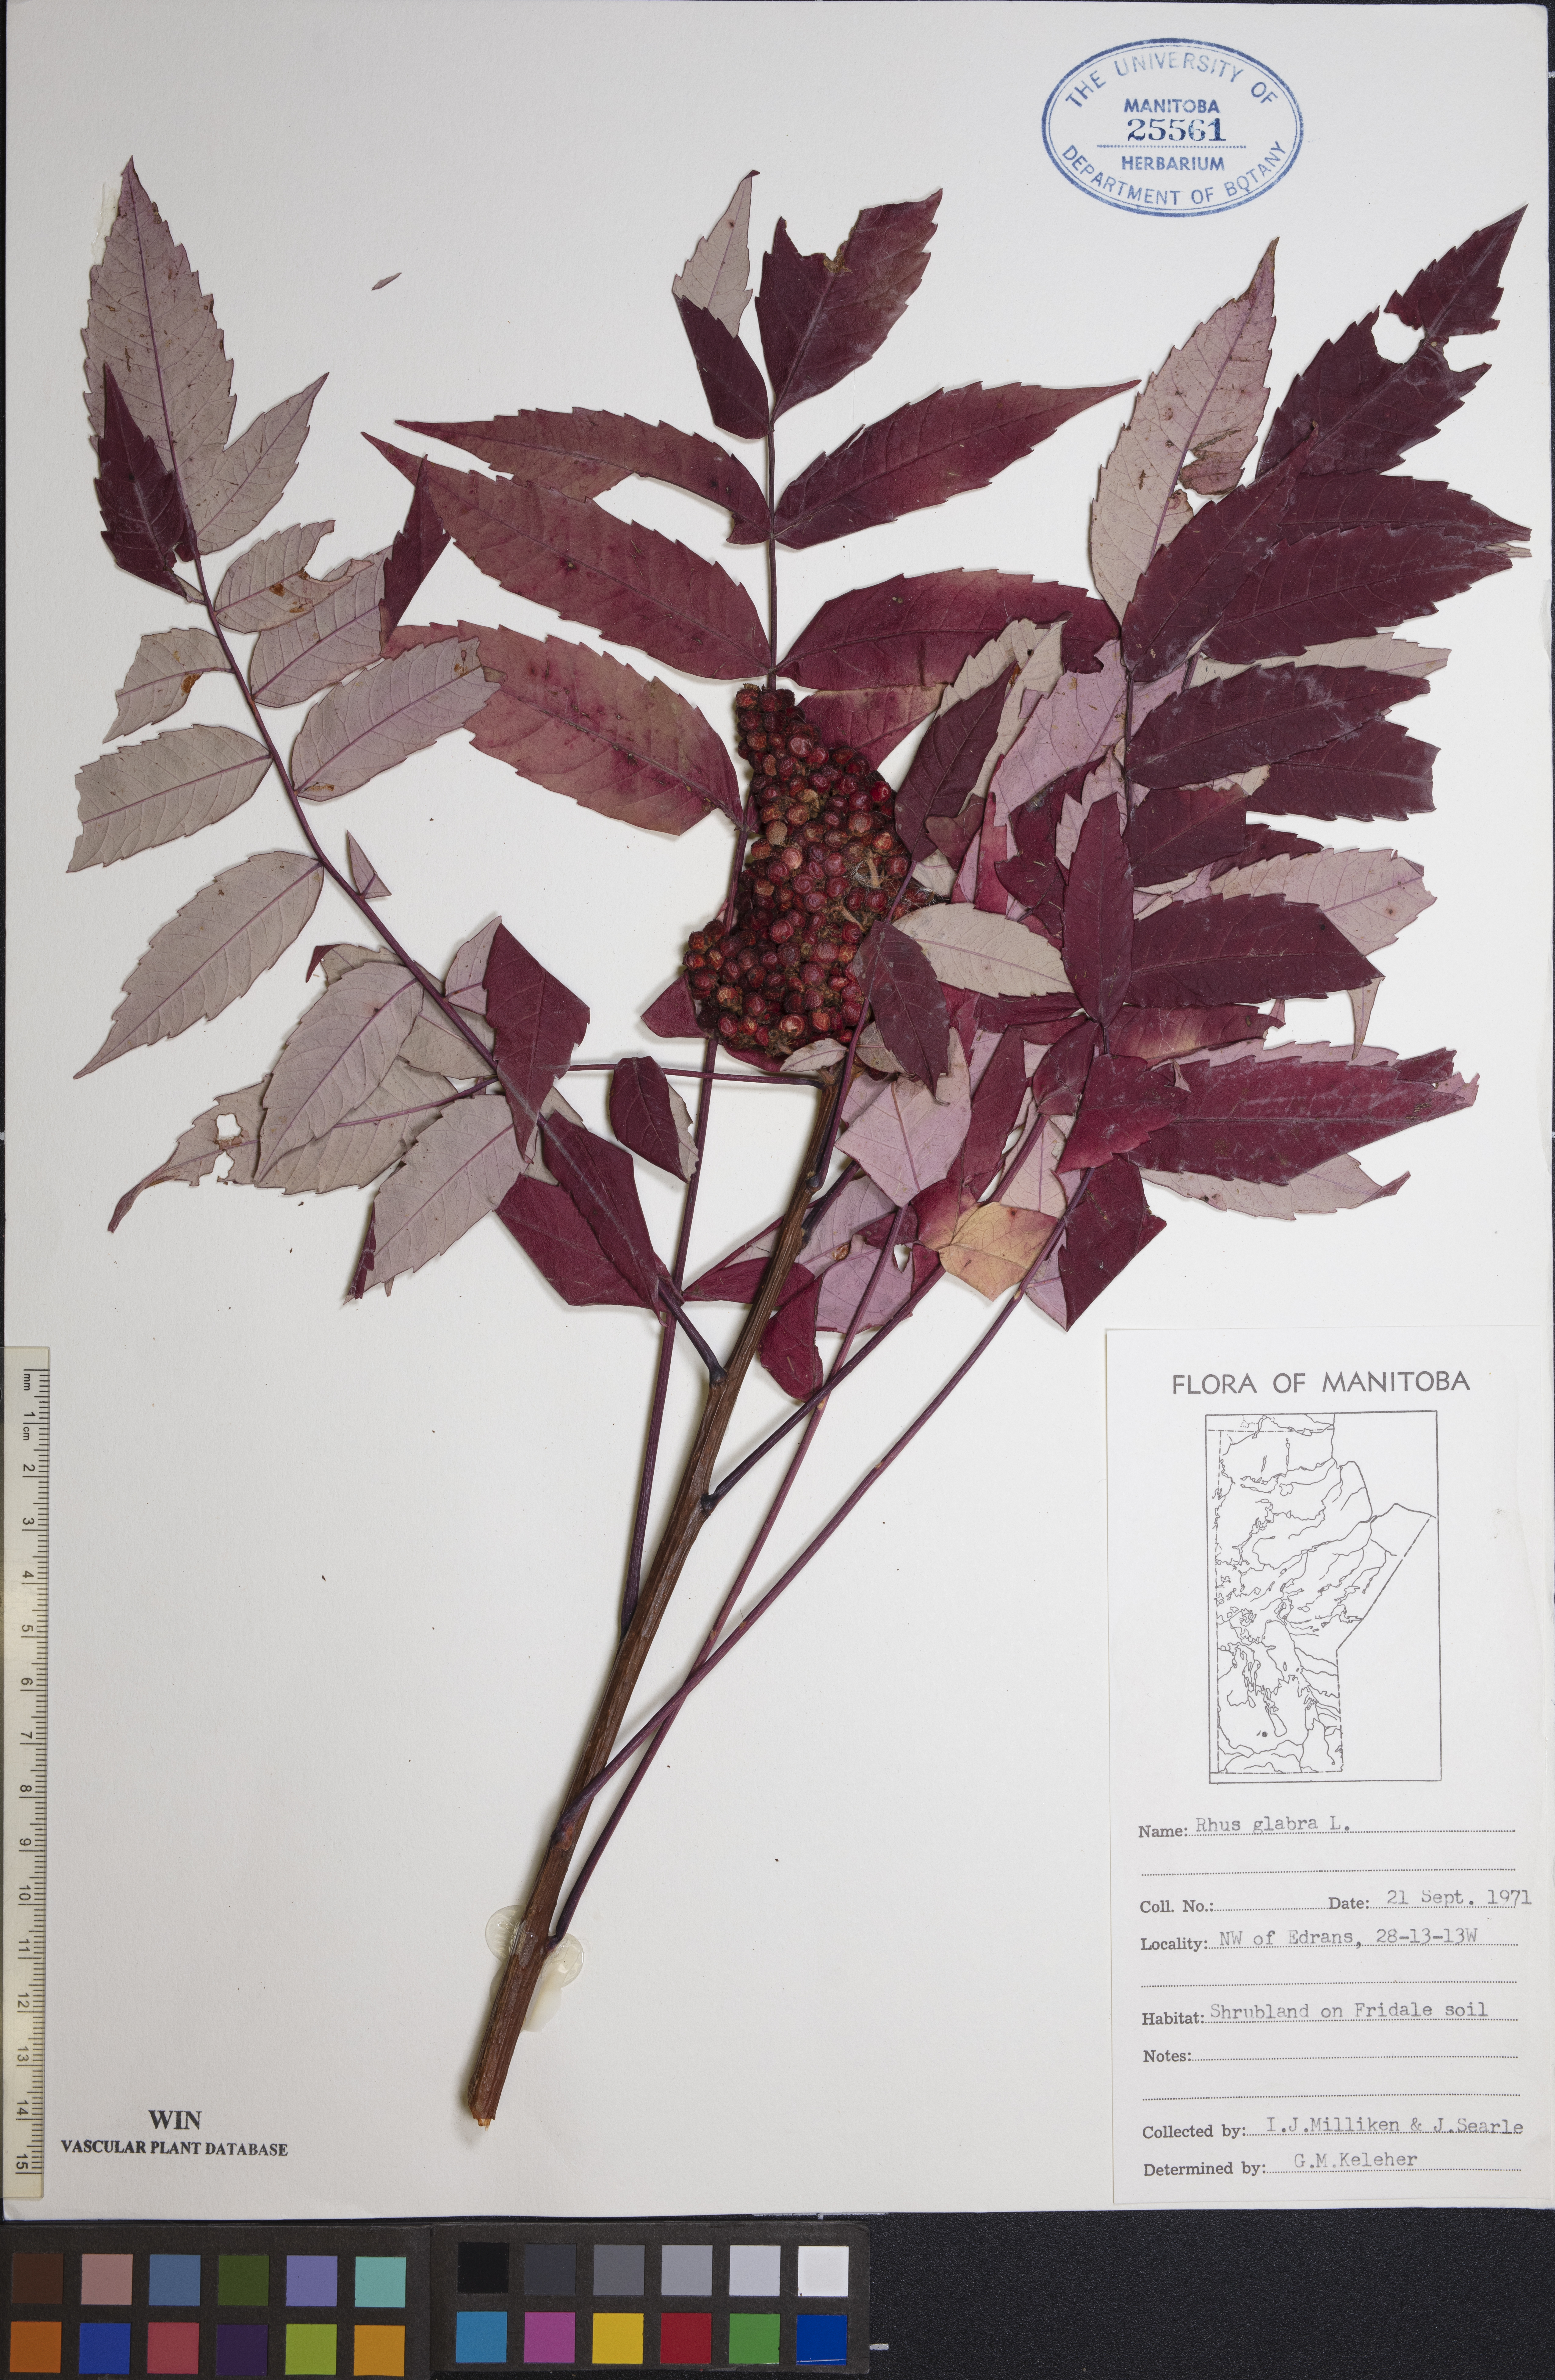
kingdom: Plantae
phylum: Tracheophyta
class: Magnoliopsida
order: Sapindales
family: Anacardiaceae
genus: Rhus
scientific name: Rhus glabra
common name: Scarlet sumac
